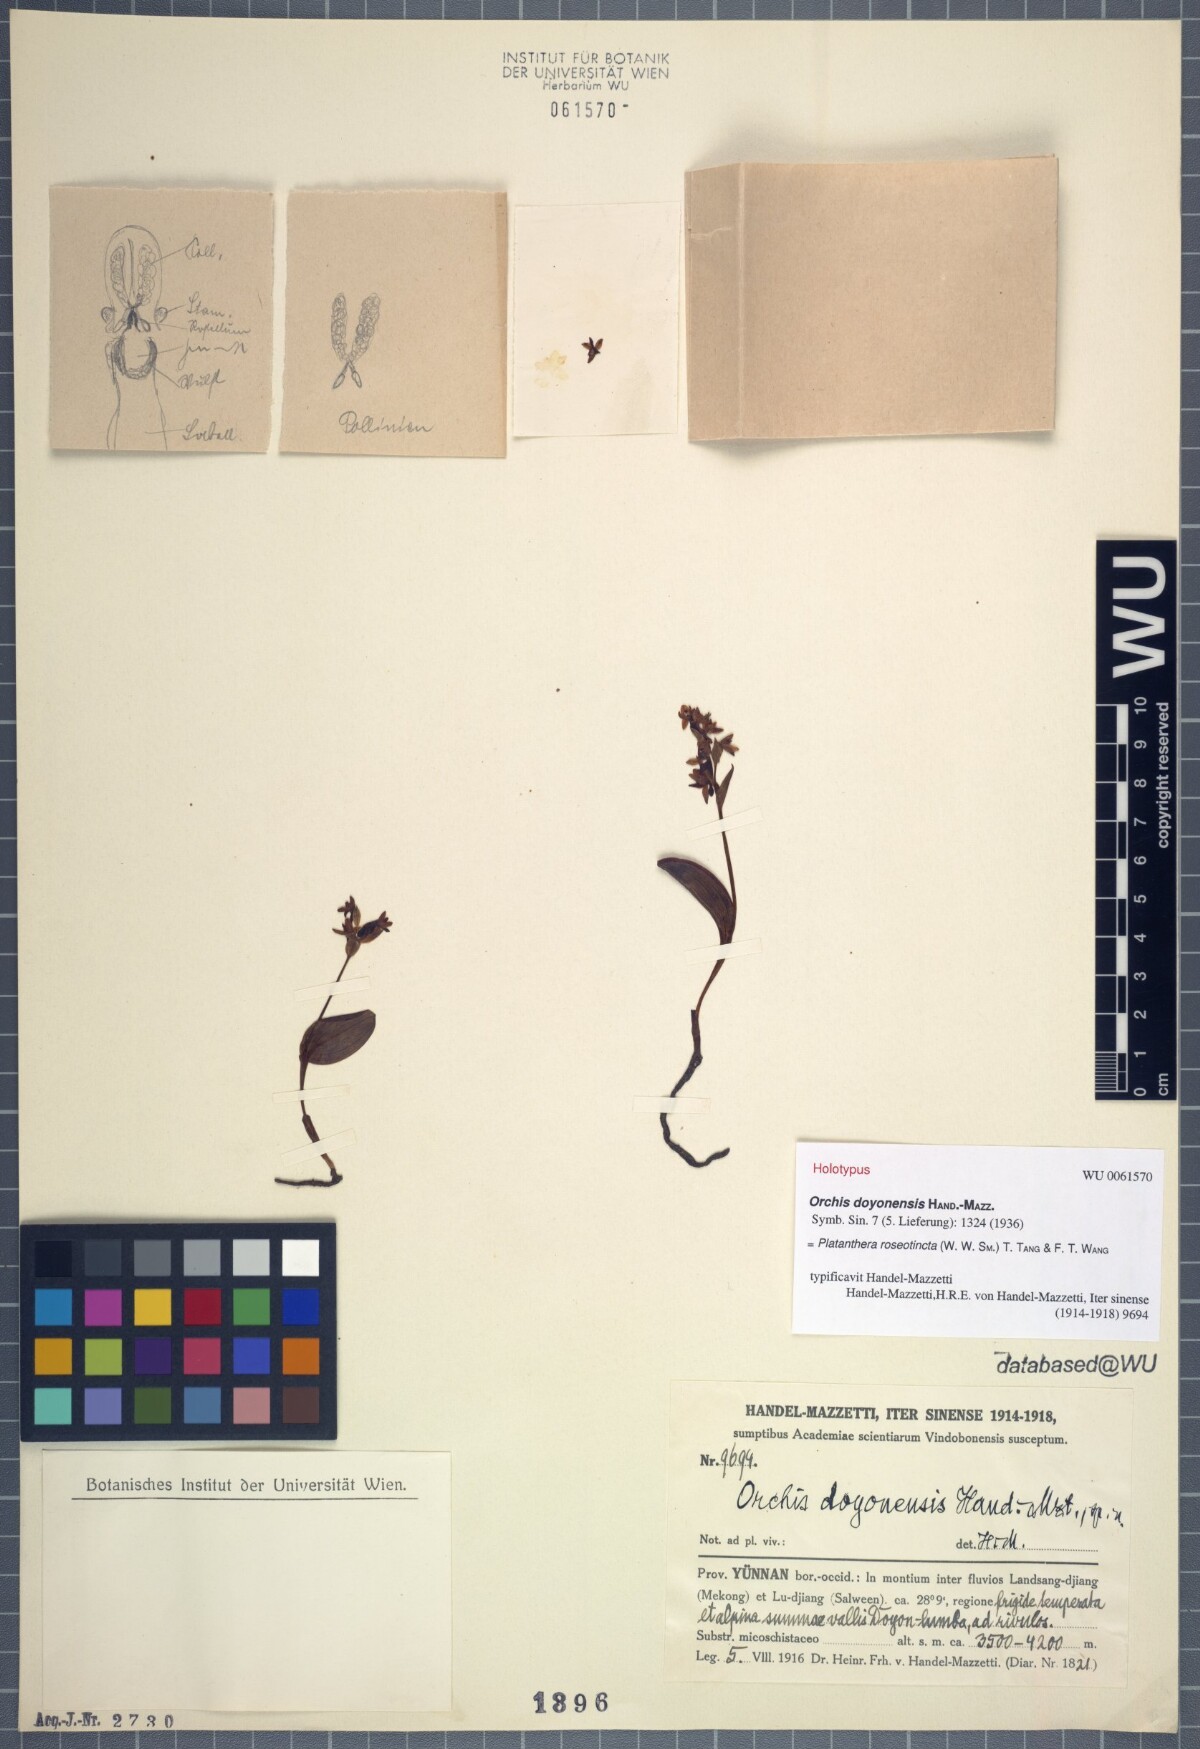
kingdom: Plantae
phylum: Tracheophyta
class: Liliopsida
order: Asparagales
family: Orchidaceae
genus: Platanthera
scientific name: Platanthera roseotincta
